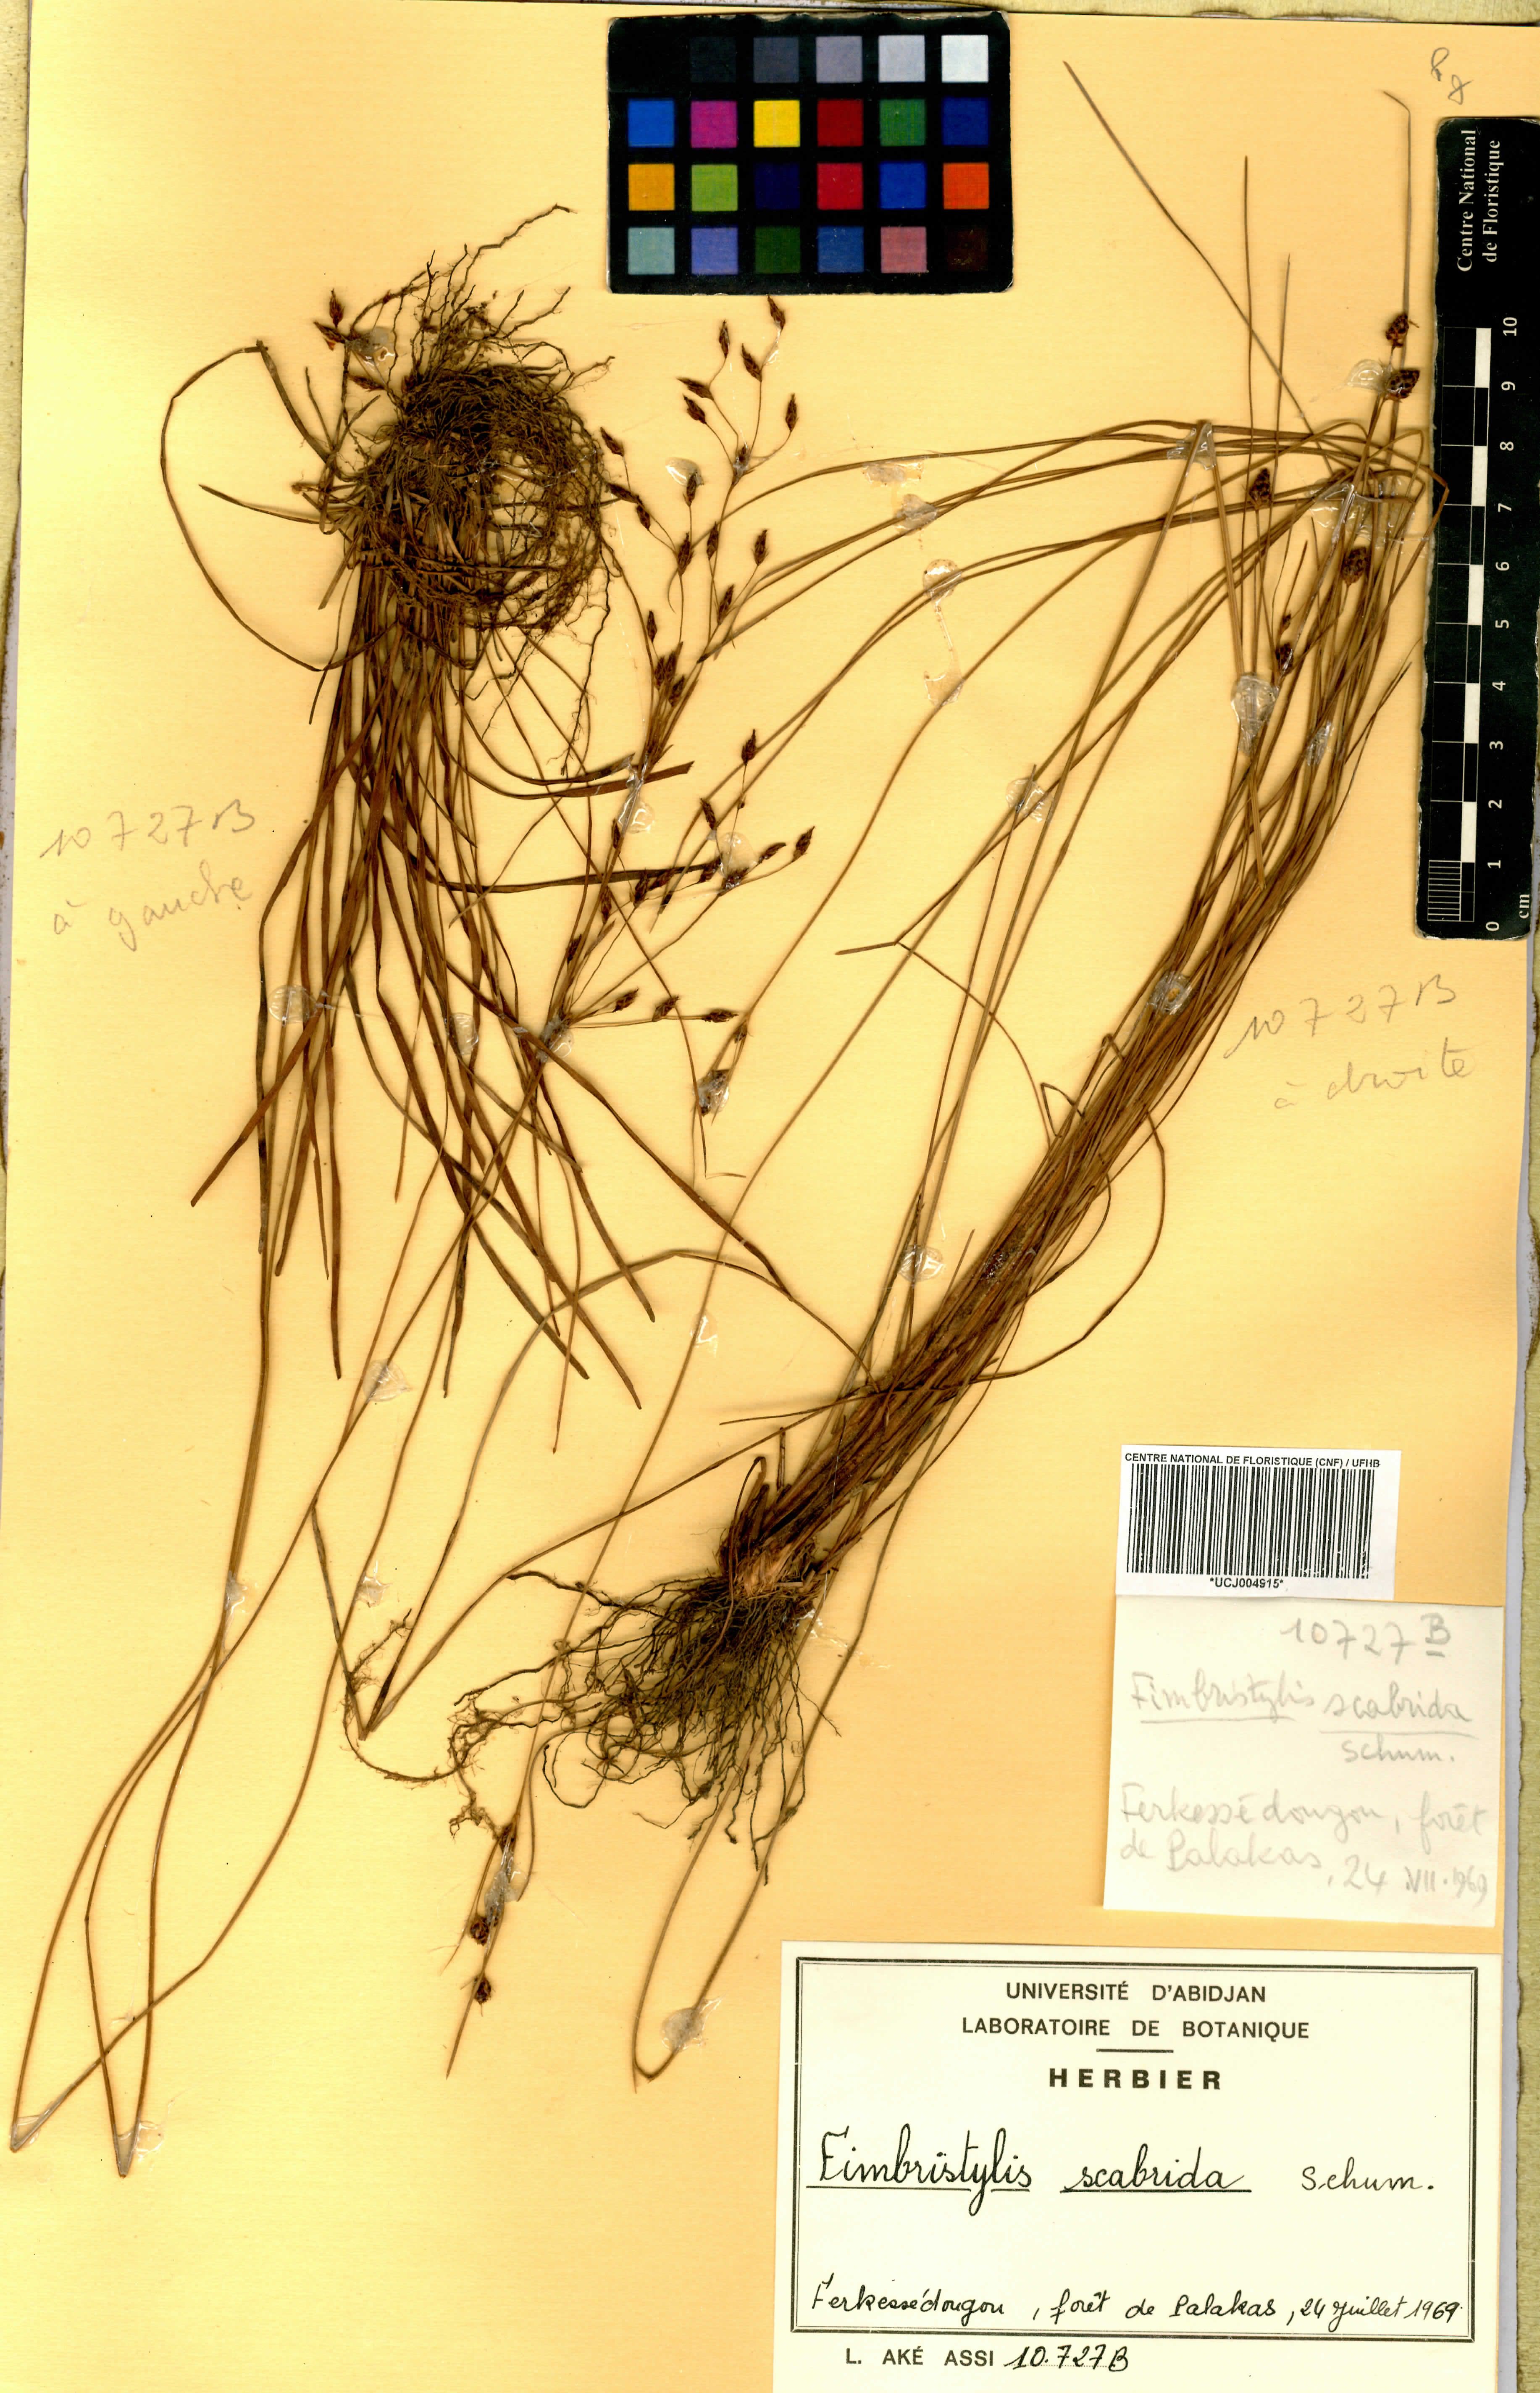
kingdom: Plantae
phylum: Tracheophyta
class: Liliopsida
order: Poales
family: Cyperaceae
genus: Fimbristylis
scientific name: Fimbristylis scabrida
